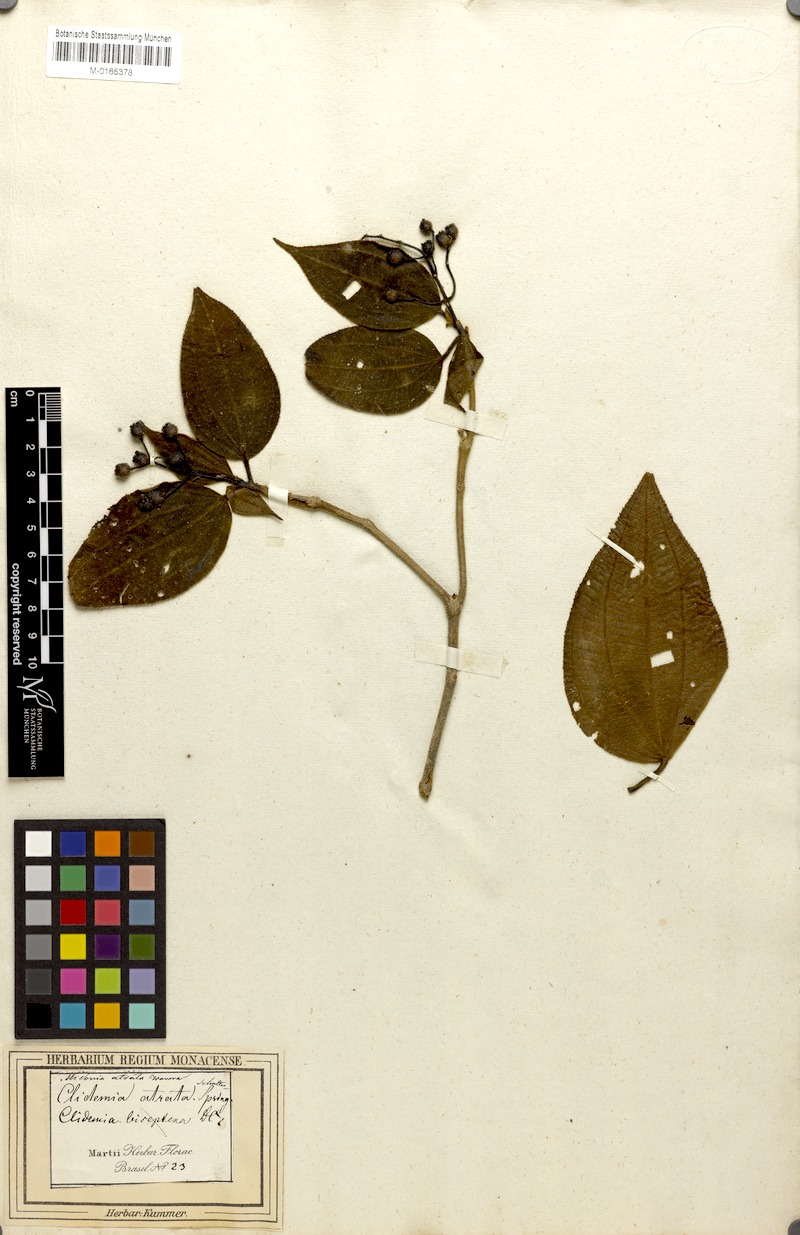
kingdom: Plantae
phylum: Tracheophyta
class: Magnoliopsida
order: Myrtales
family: Melastomataceae
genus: Miconia
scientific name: Miconia atrata
